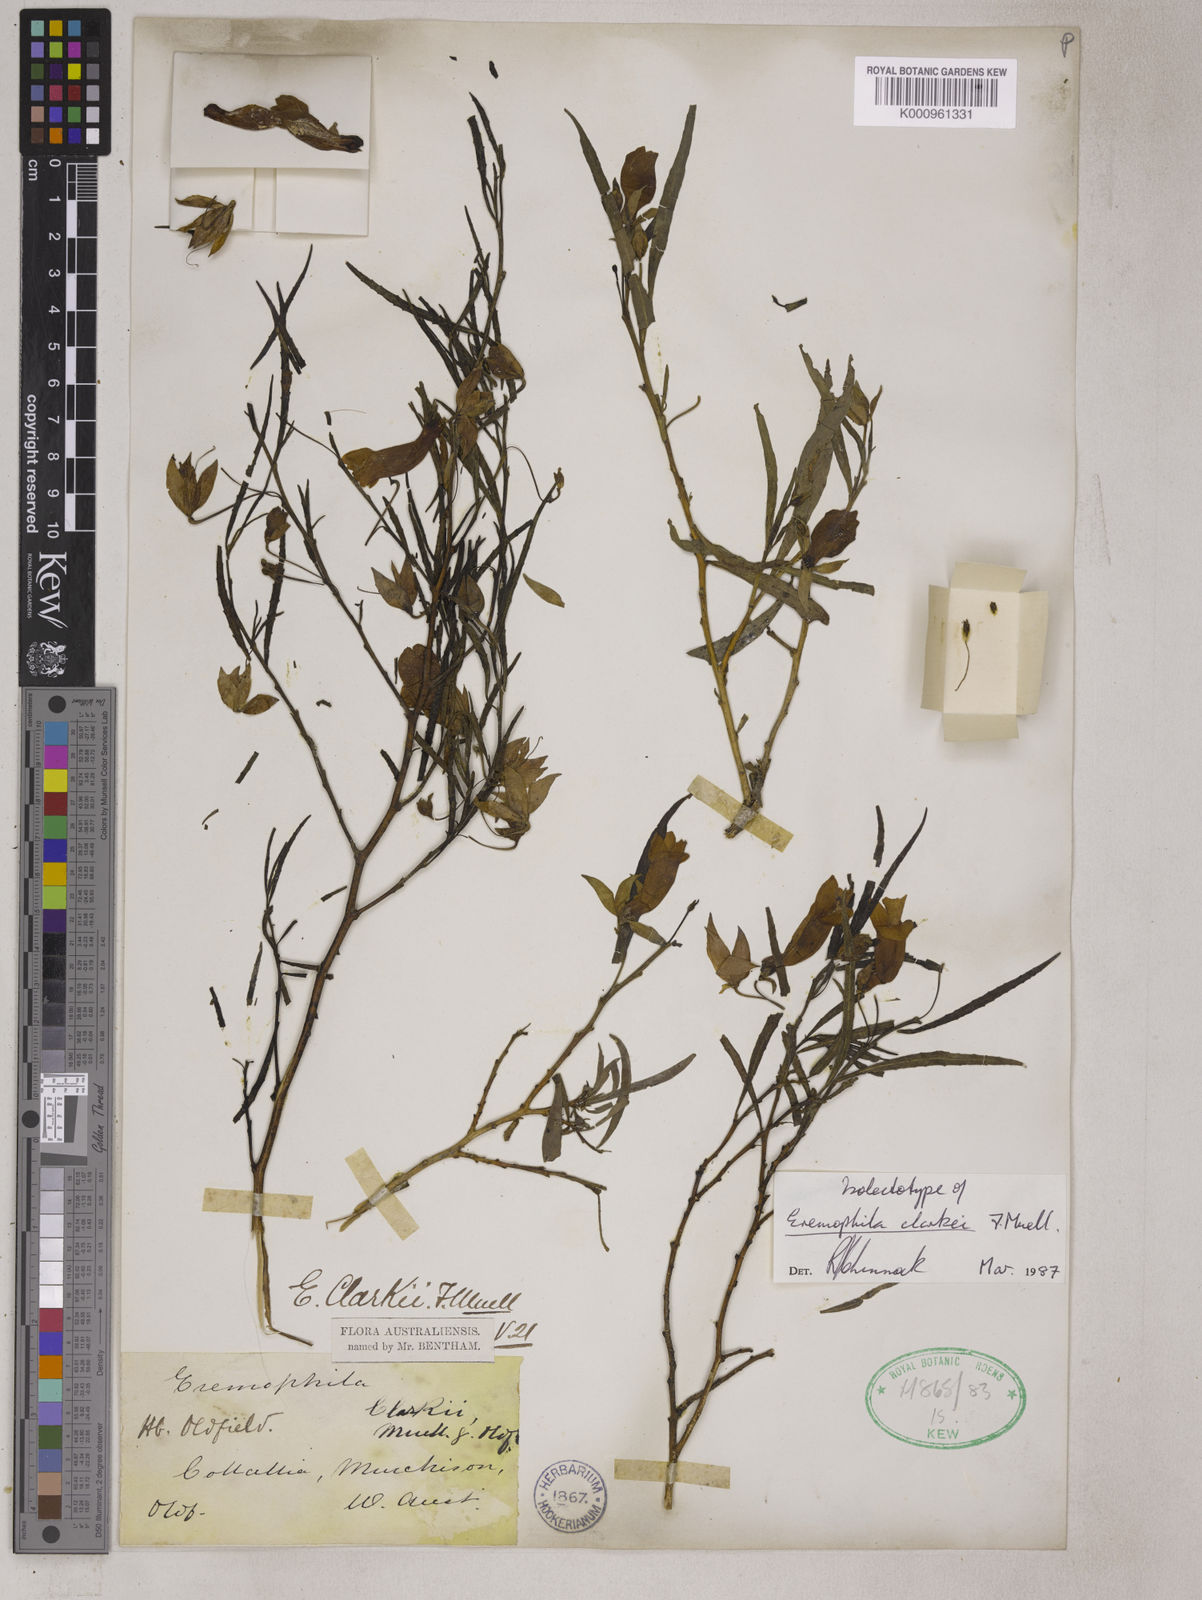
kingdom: Plantae
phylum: Tracheophyta
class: Magnoliopsida
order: Lamiales
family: Scrophulariaceae
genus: Eremophila
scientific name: Eremophila clarkei
